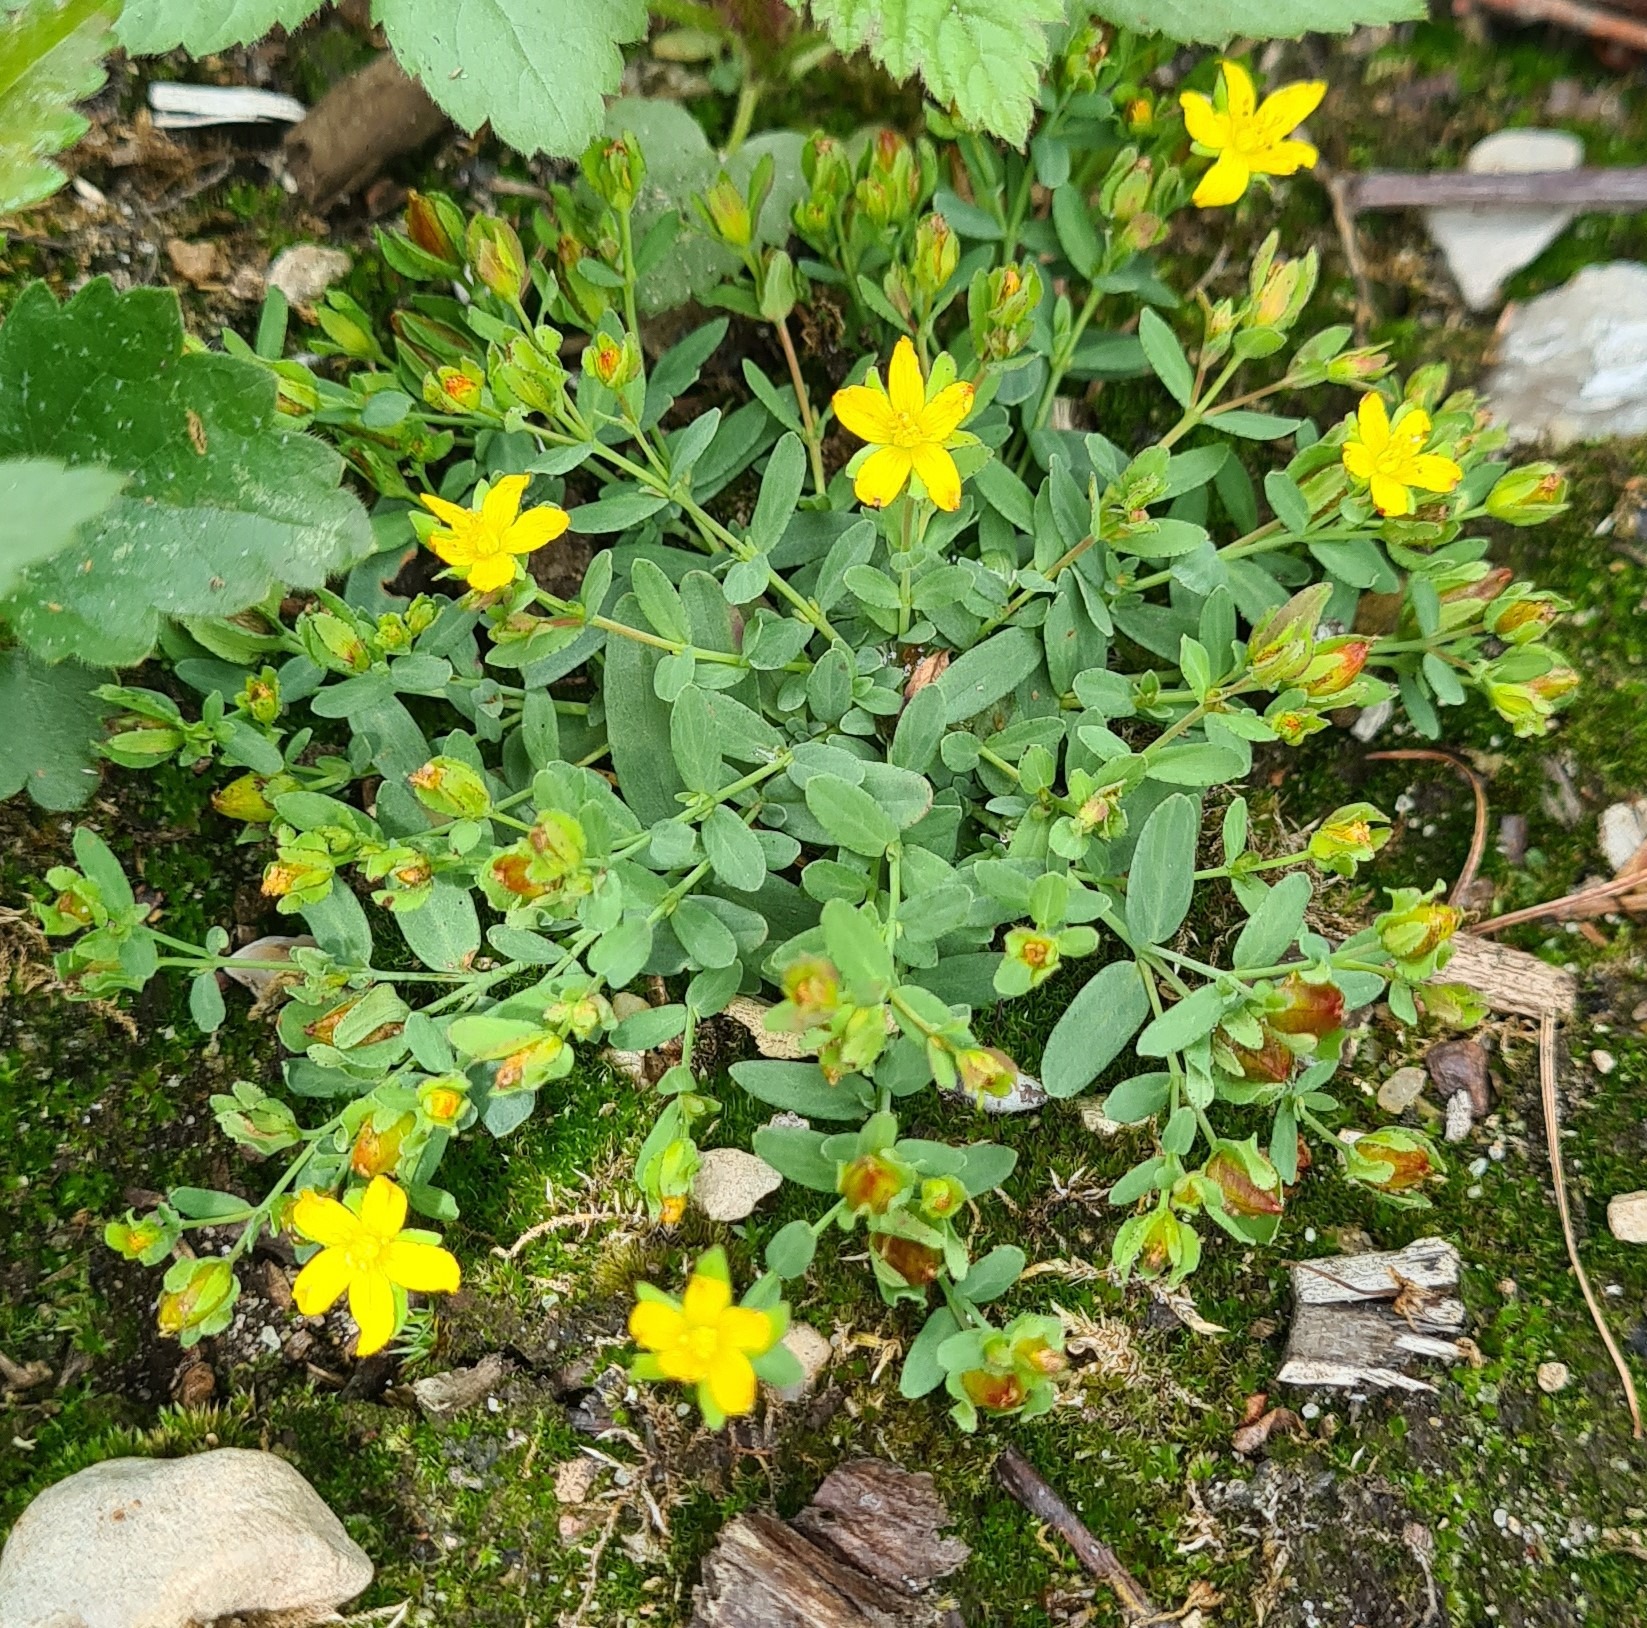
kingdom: Plantae
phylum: Tracheophyta
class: Magnoliopsida
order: Malpighiales
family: Hypericaceae
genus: Hypericum
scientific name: Hypericum humifusum
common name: Dværg-perikon
